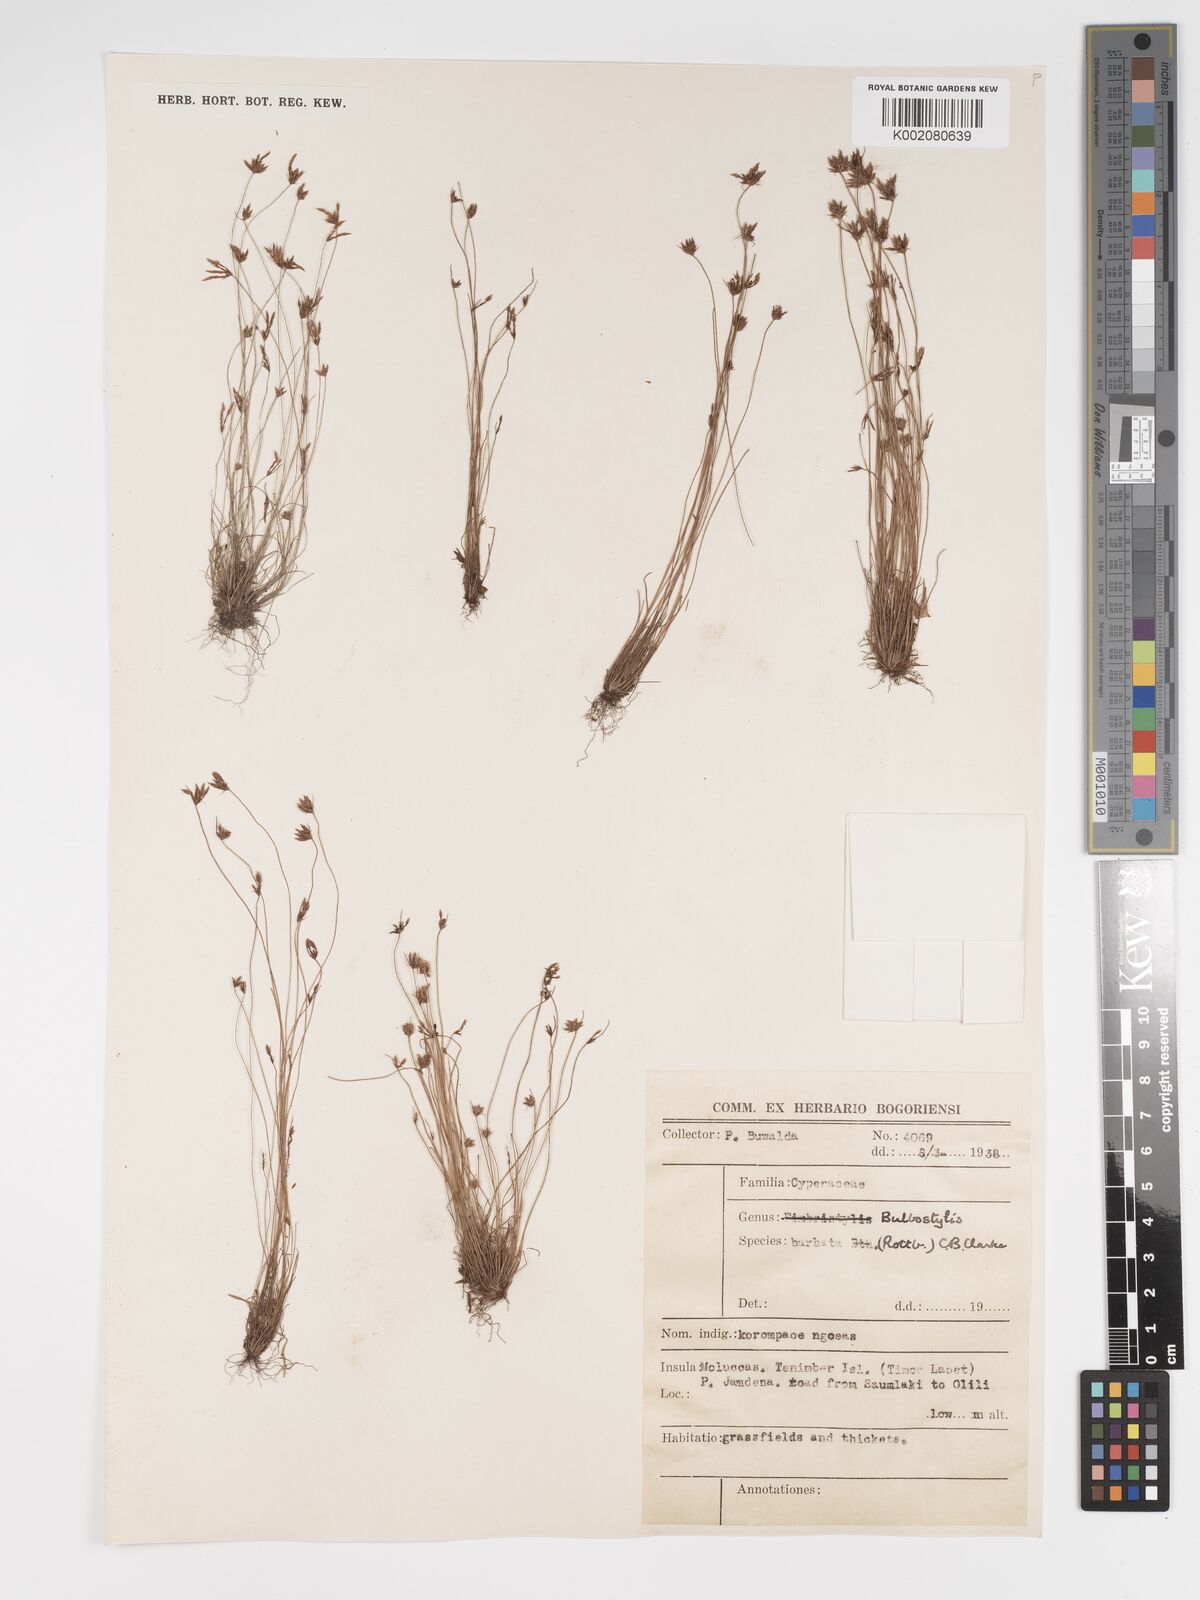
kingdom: Plantae
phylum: Tracheophyta
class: Liliopsida
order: Poales
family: Cyperaceae
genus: Bulbostylis
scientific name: Bulbostylis barbata
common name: Watergrass
